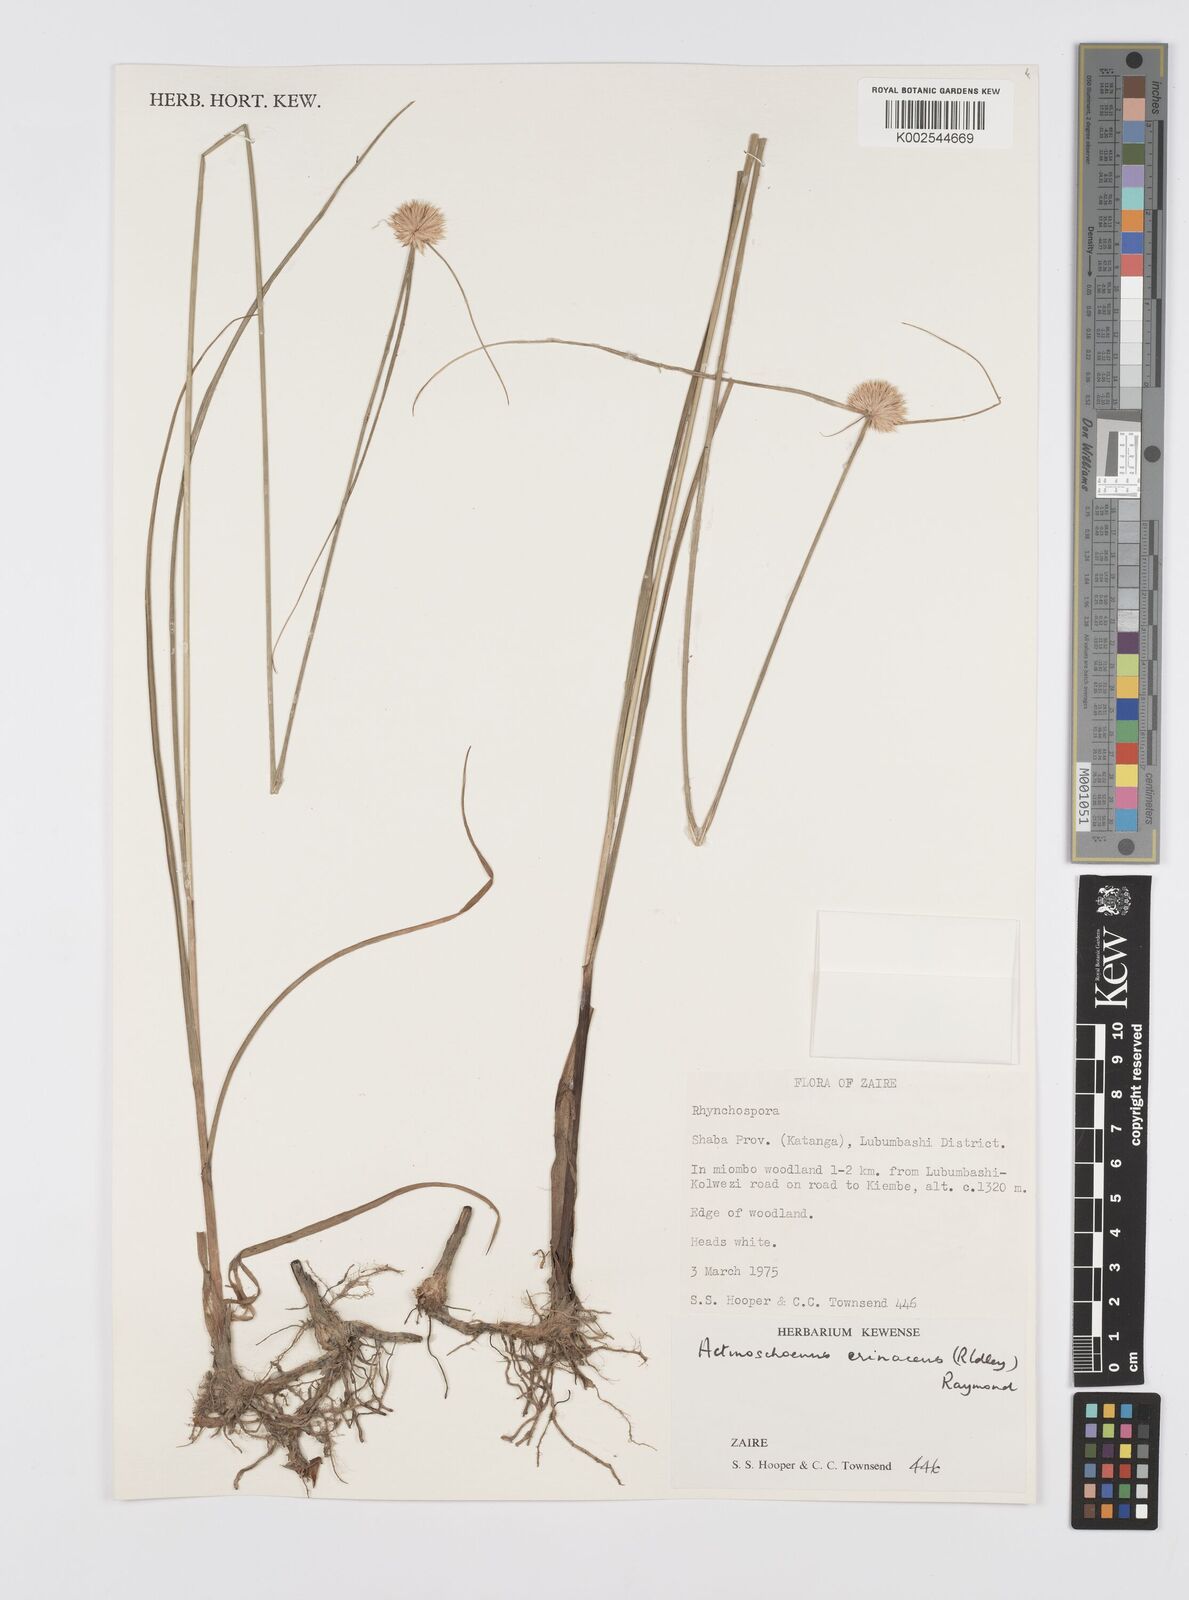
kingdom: Plantae
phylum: Tracheophyta
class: Liliopsida
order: Poales
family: Cyperaceae
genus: Cyperus
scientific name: Cyperus erinaceus
